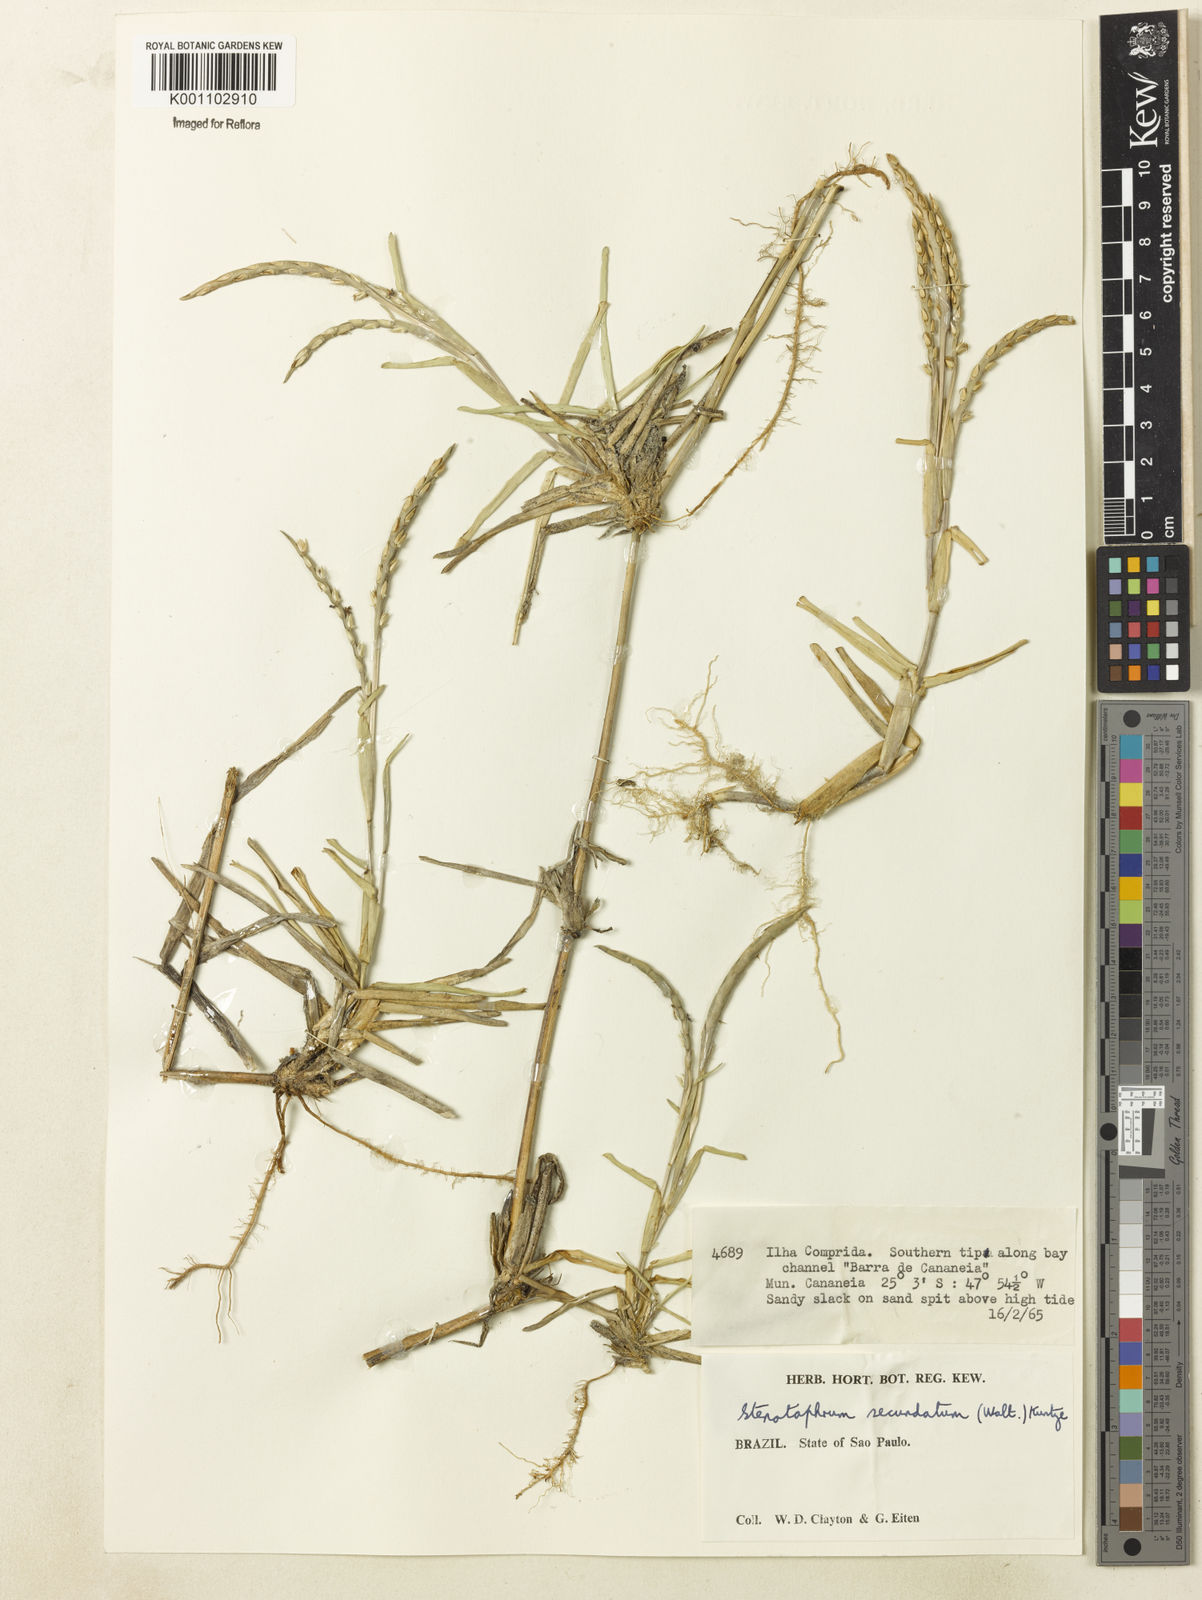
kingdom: Plantae
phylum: Tracheophyta
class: Liliopsida
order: Poales
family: Poaceae
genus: Stenotaphrum
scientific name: Stenotaphrum secundatum
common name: St. augustine grass
